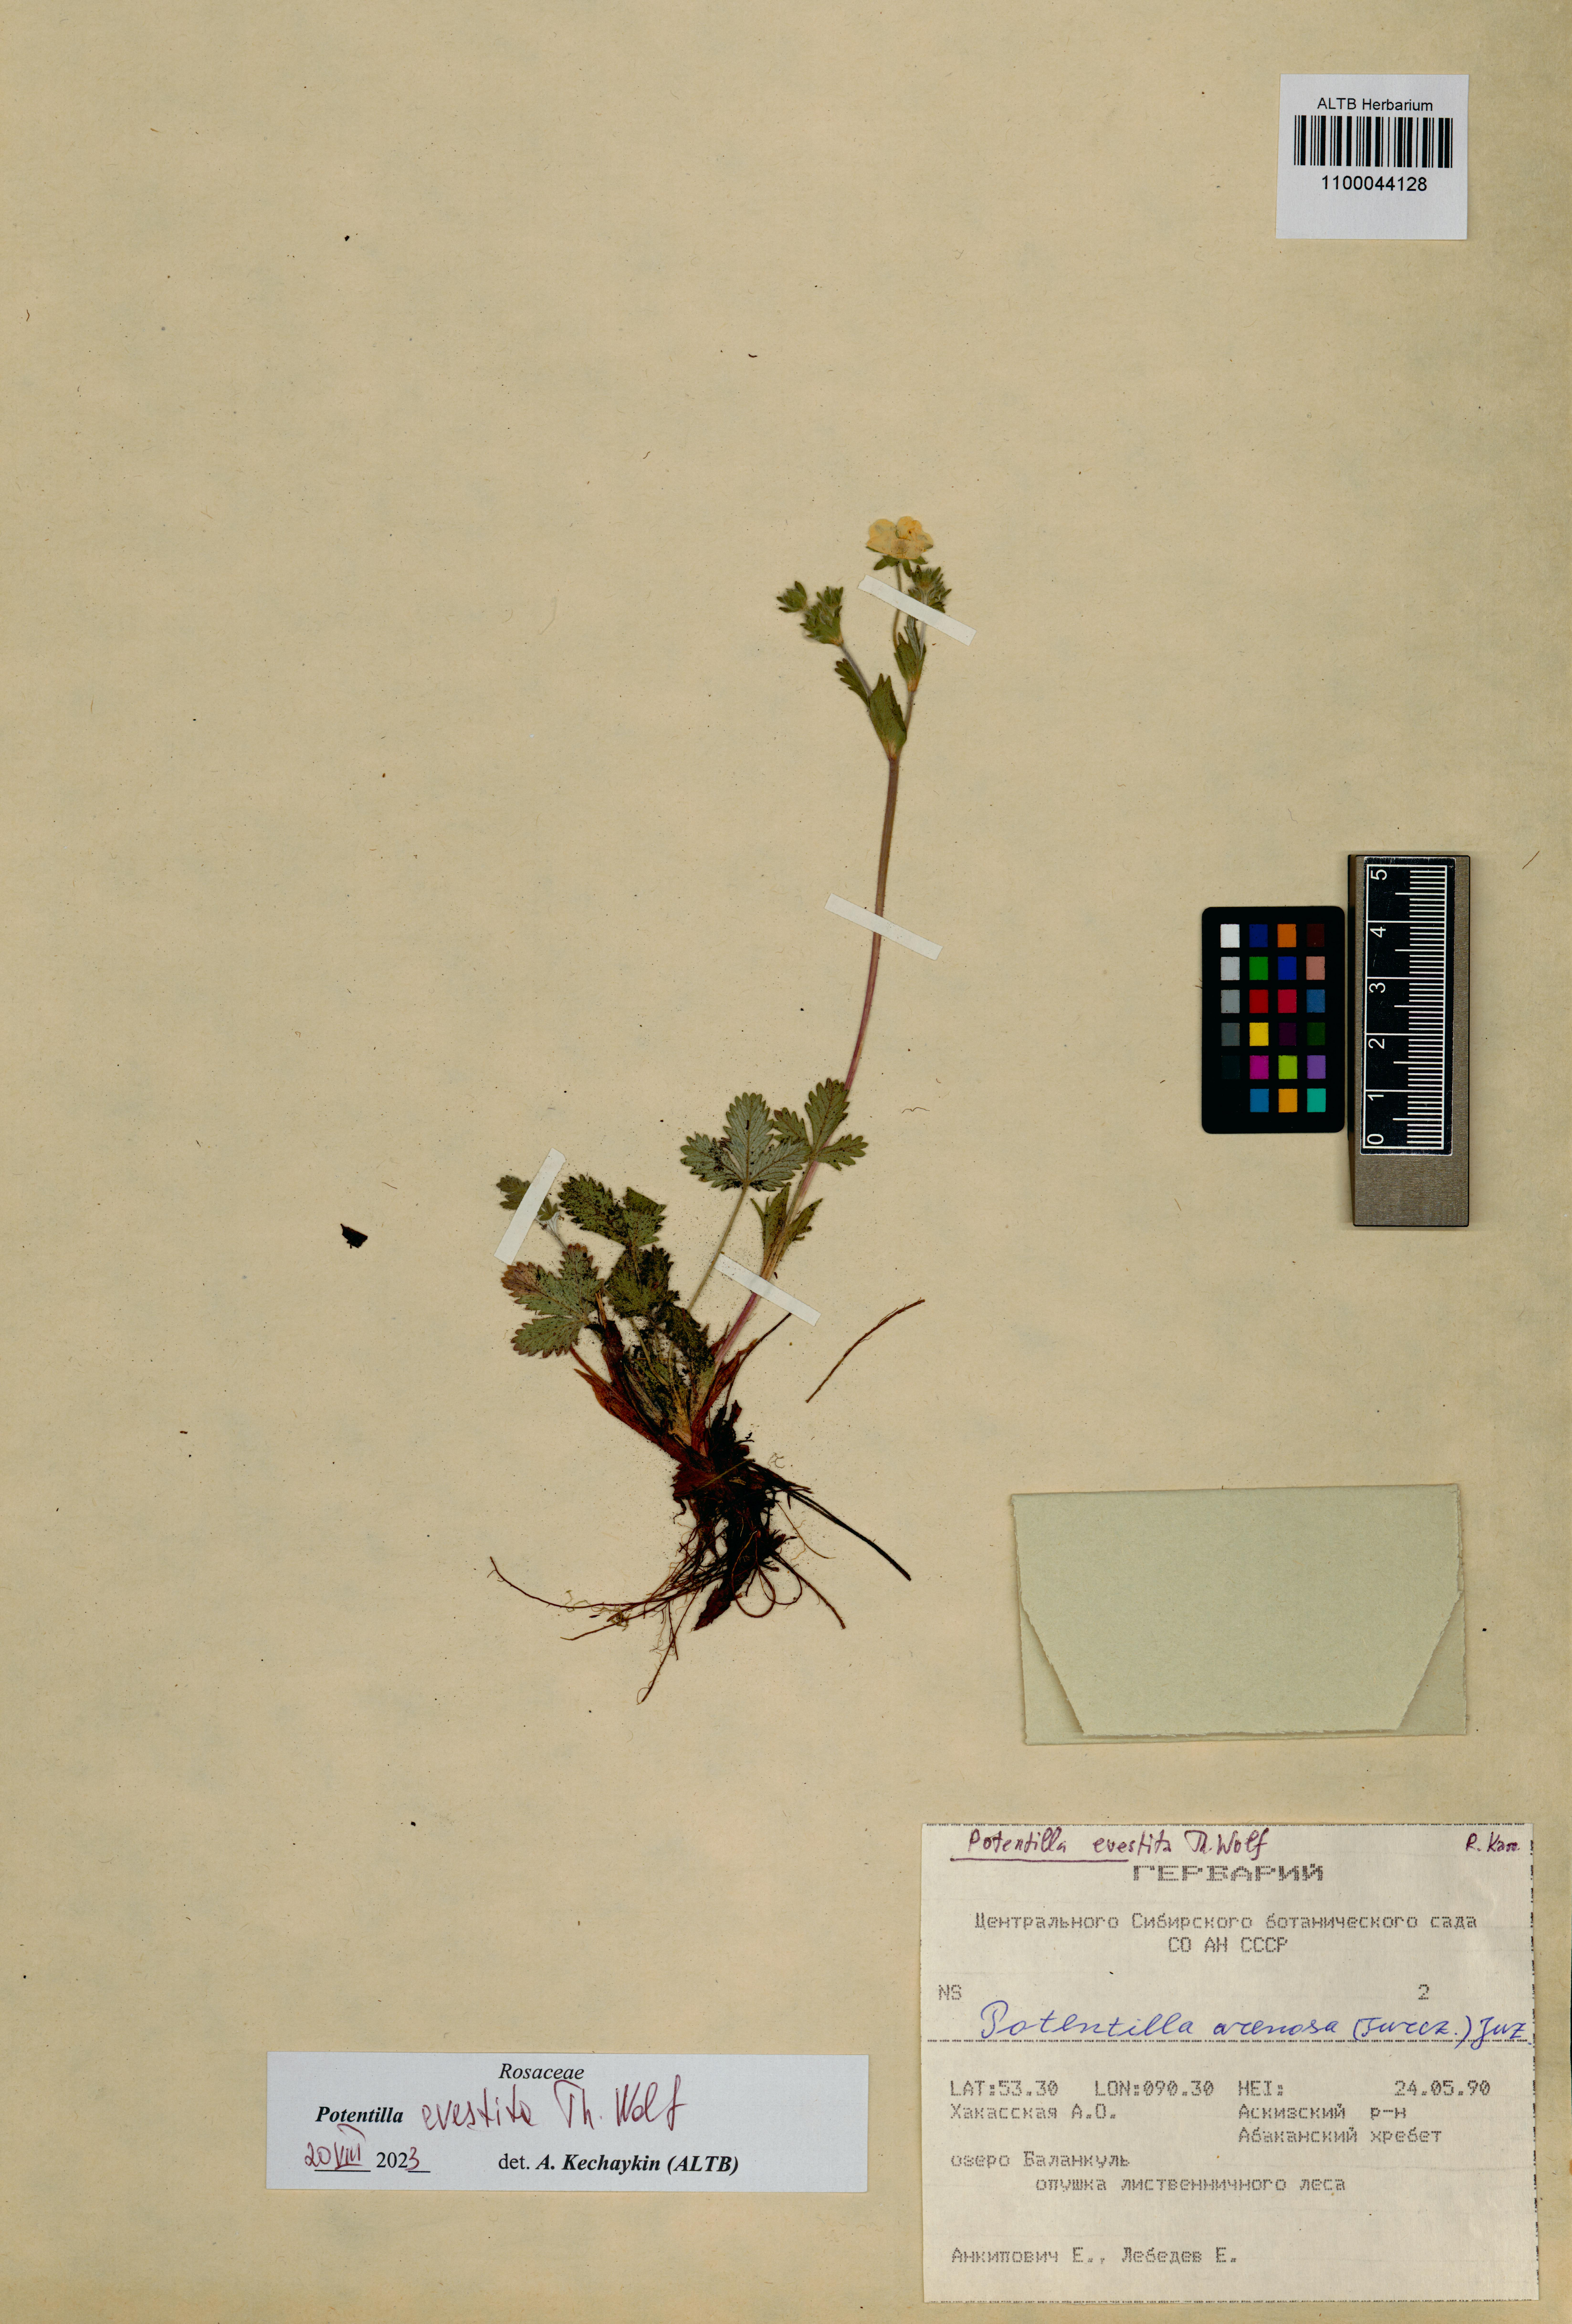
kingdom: Plantae
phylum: Tracheophyta
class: Magnoliopsida
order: Rosales
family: Rosaceae
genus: Potentilla
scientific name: Potentilla evestita
